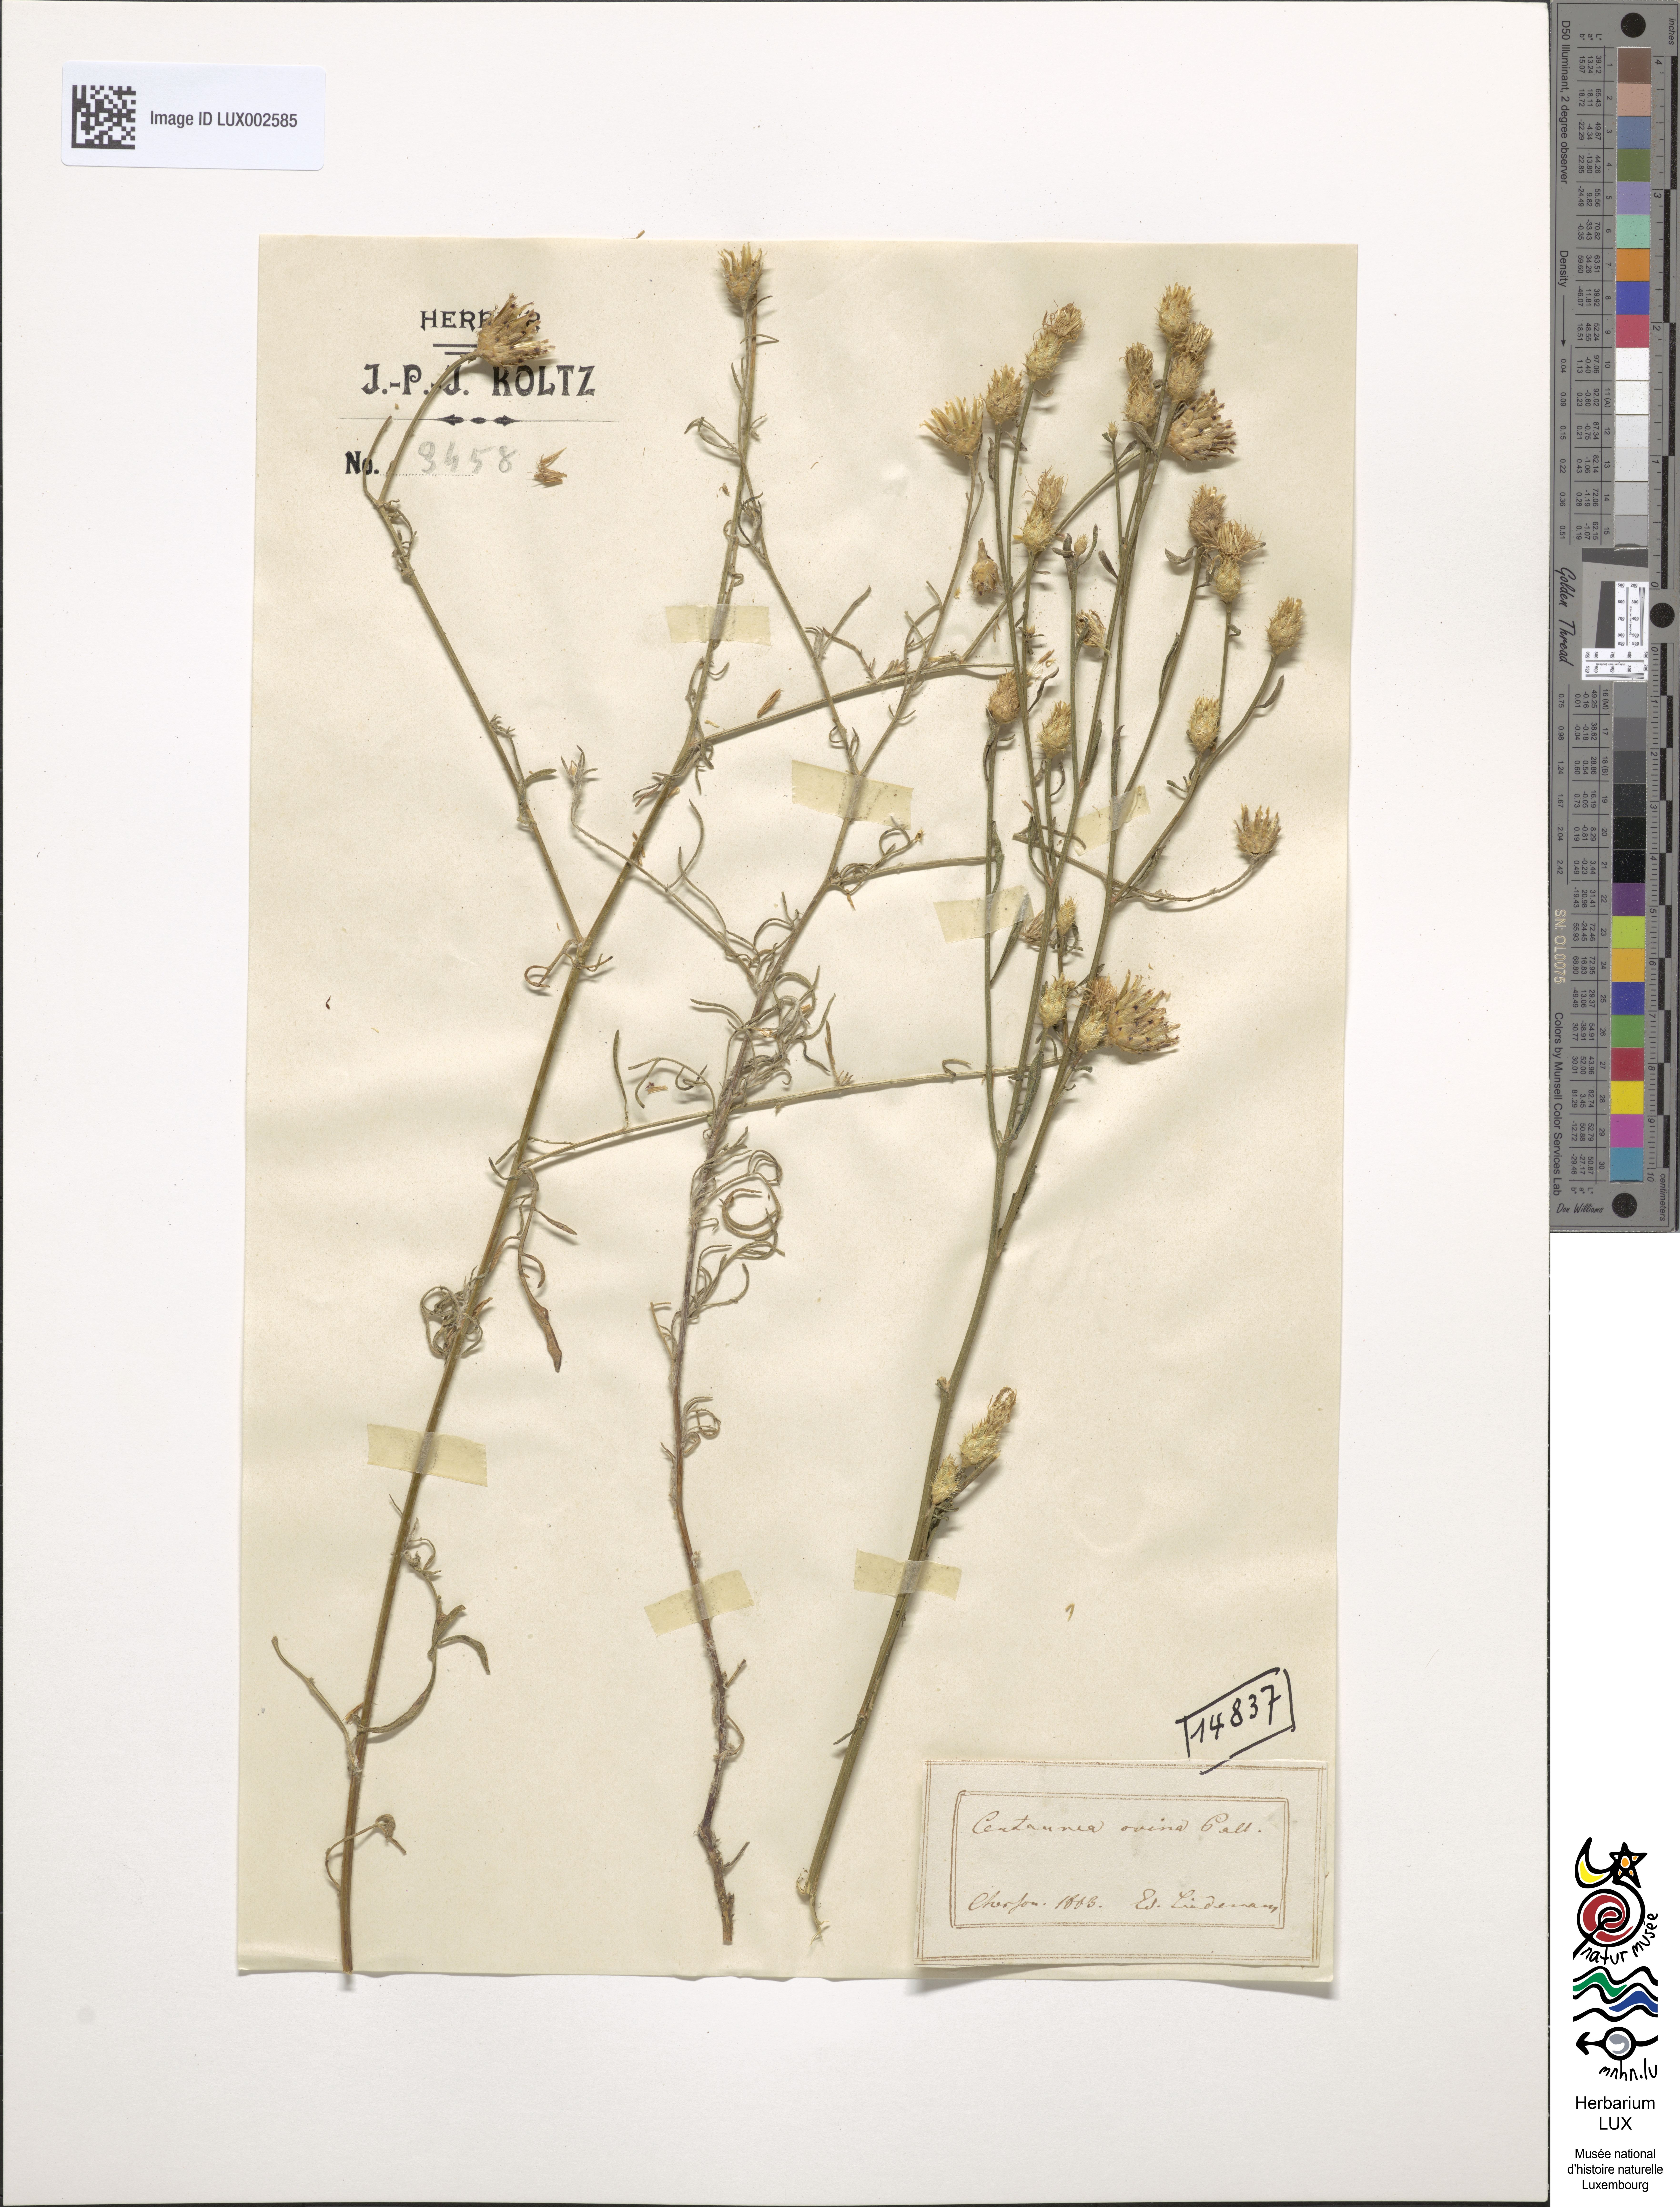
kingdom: Plantae
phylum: Tracheophyta
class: Magnoliopsida
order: Asterales
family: Asteraceae
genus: Centaurea
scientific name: Centaurea ovina
